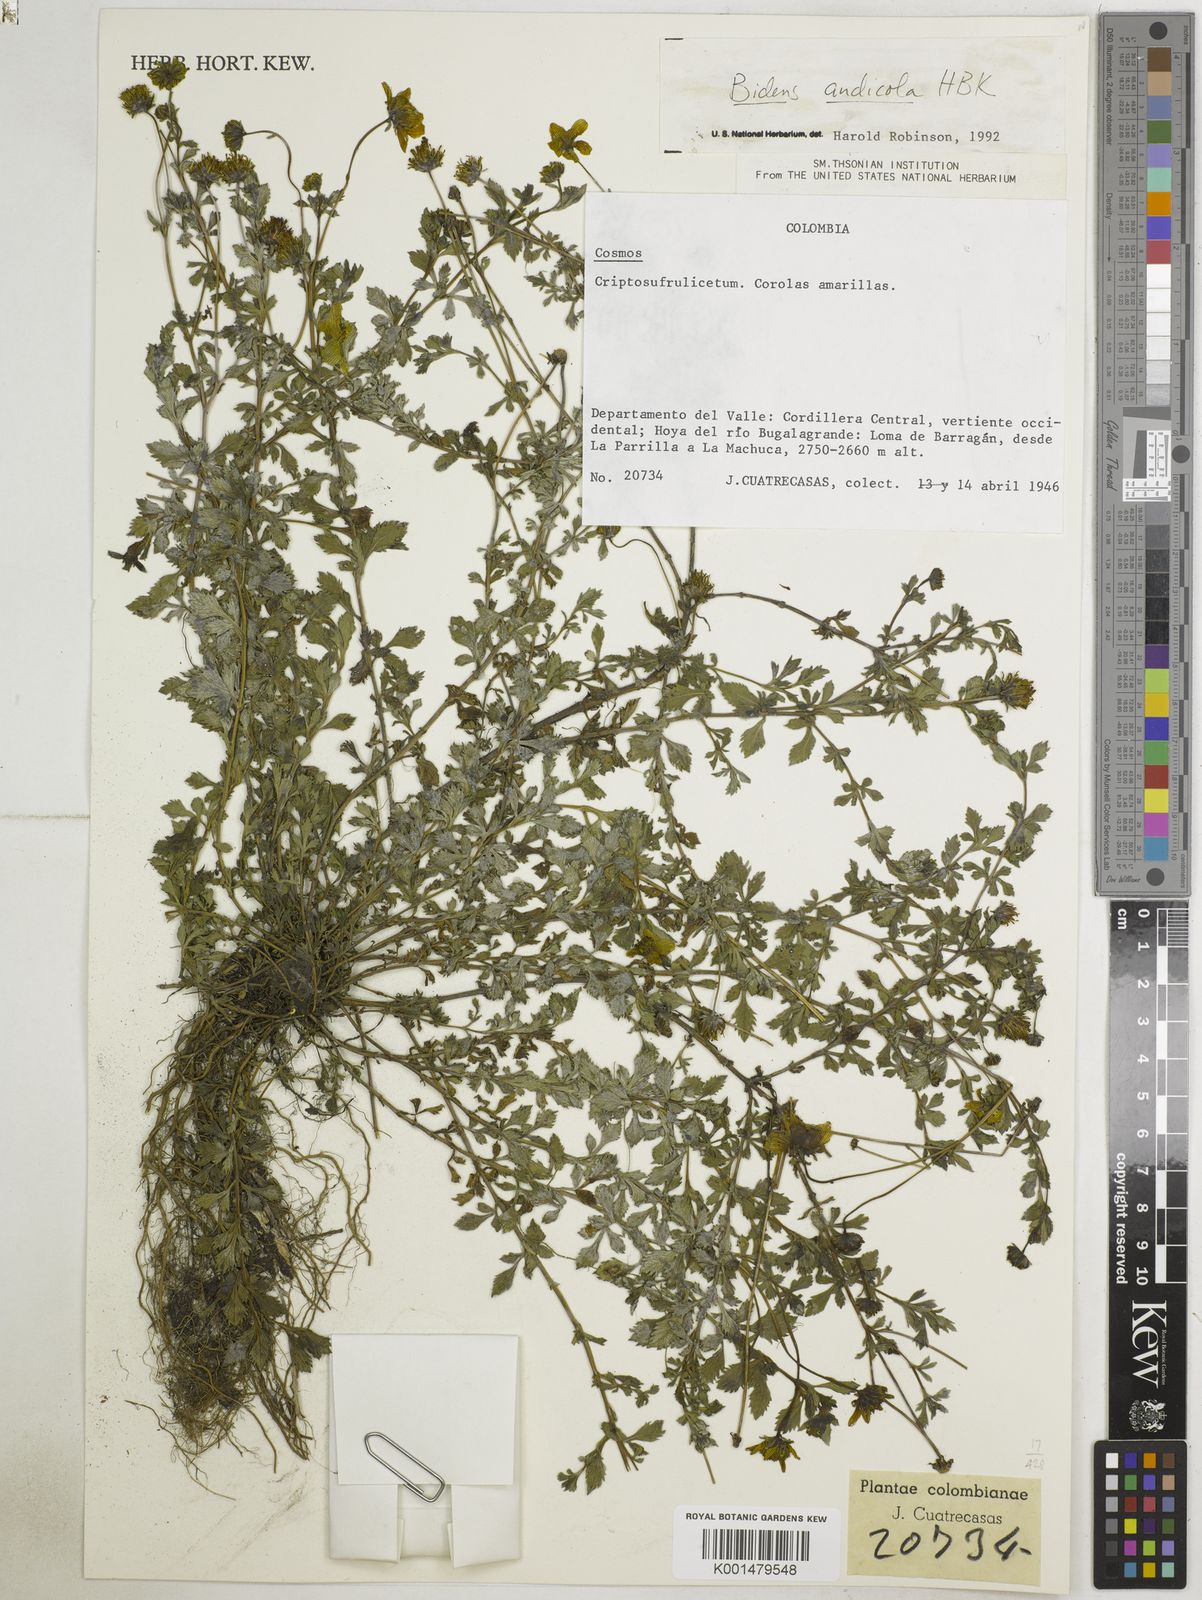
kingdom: Plantae
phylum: Tracheophyta
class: Magnoliopsida
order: Asterales
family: Asteraceae
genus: Bidens
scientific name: Bidens andicola
